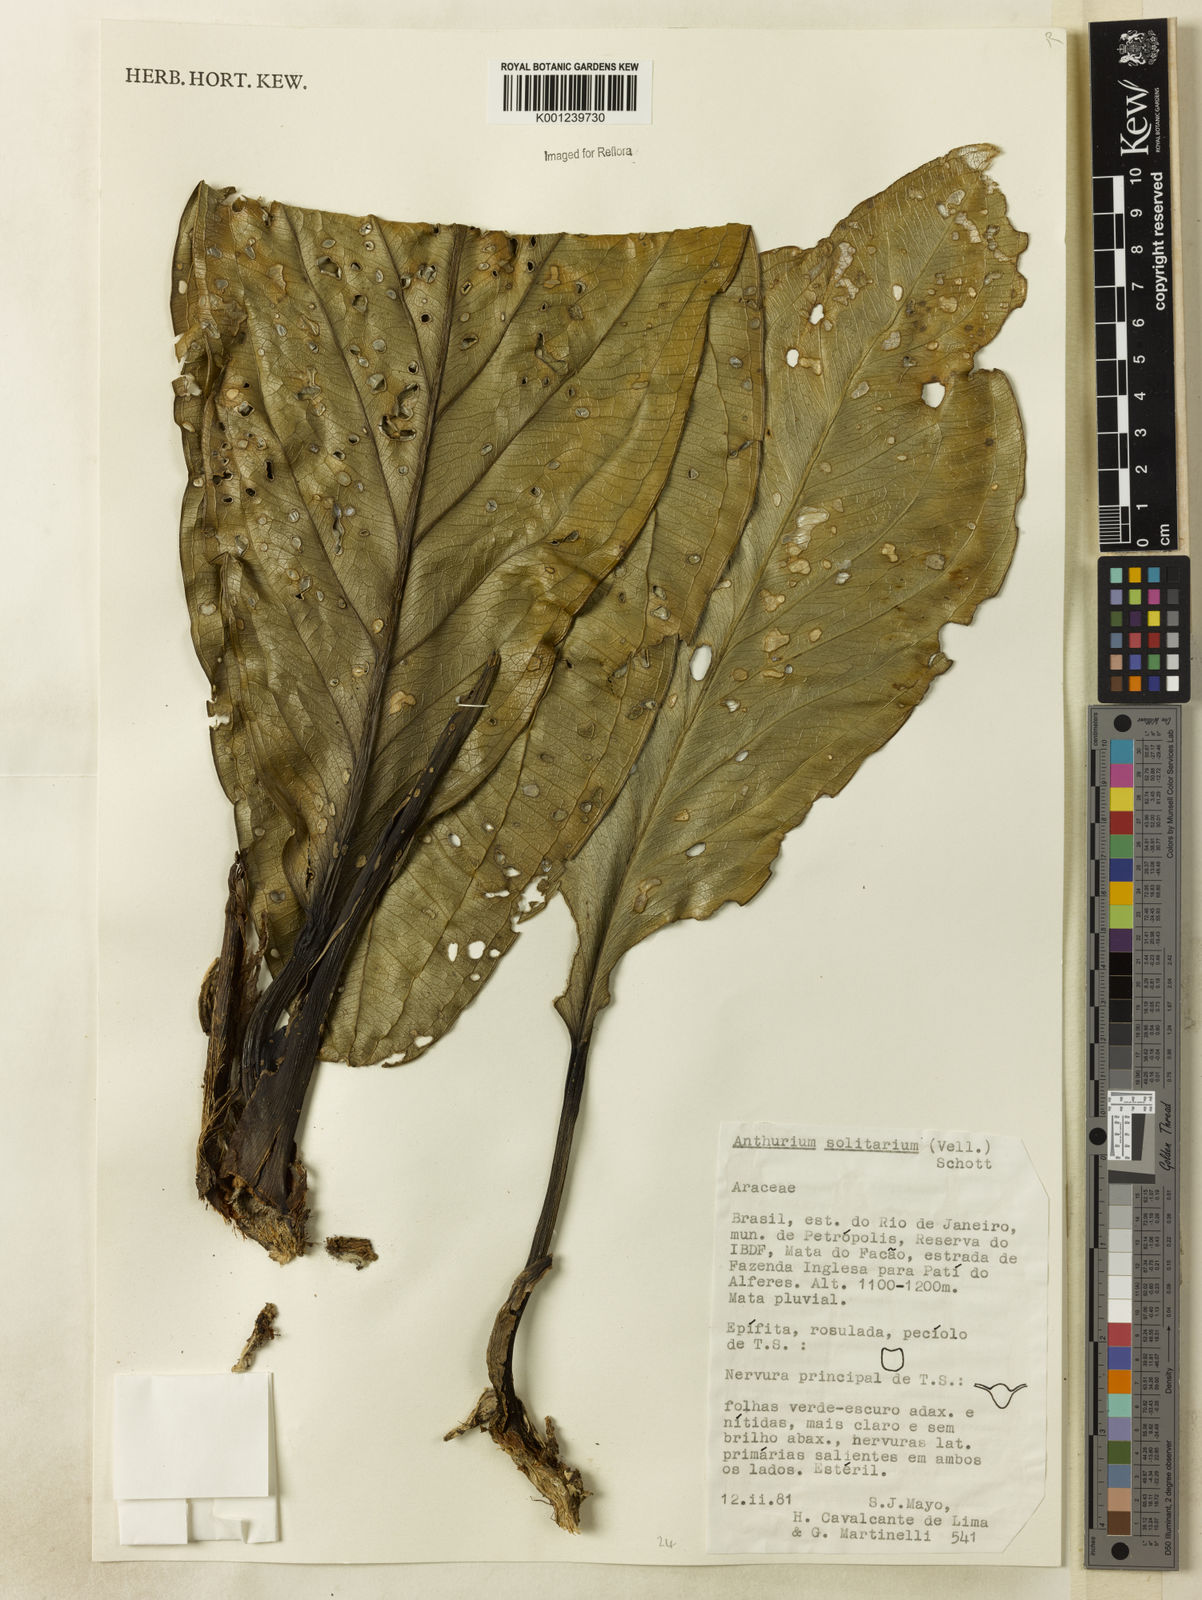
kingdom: Plantae
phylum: Tracheophyta
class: Liliopsida
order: Alismatales
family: Araceae
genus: Anthurium
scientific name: Anthurium solitarium
